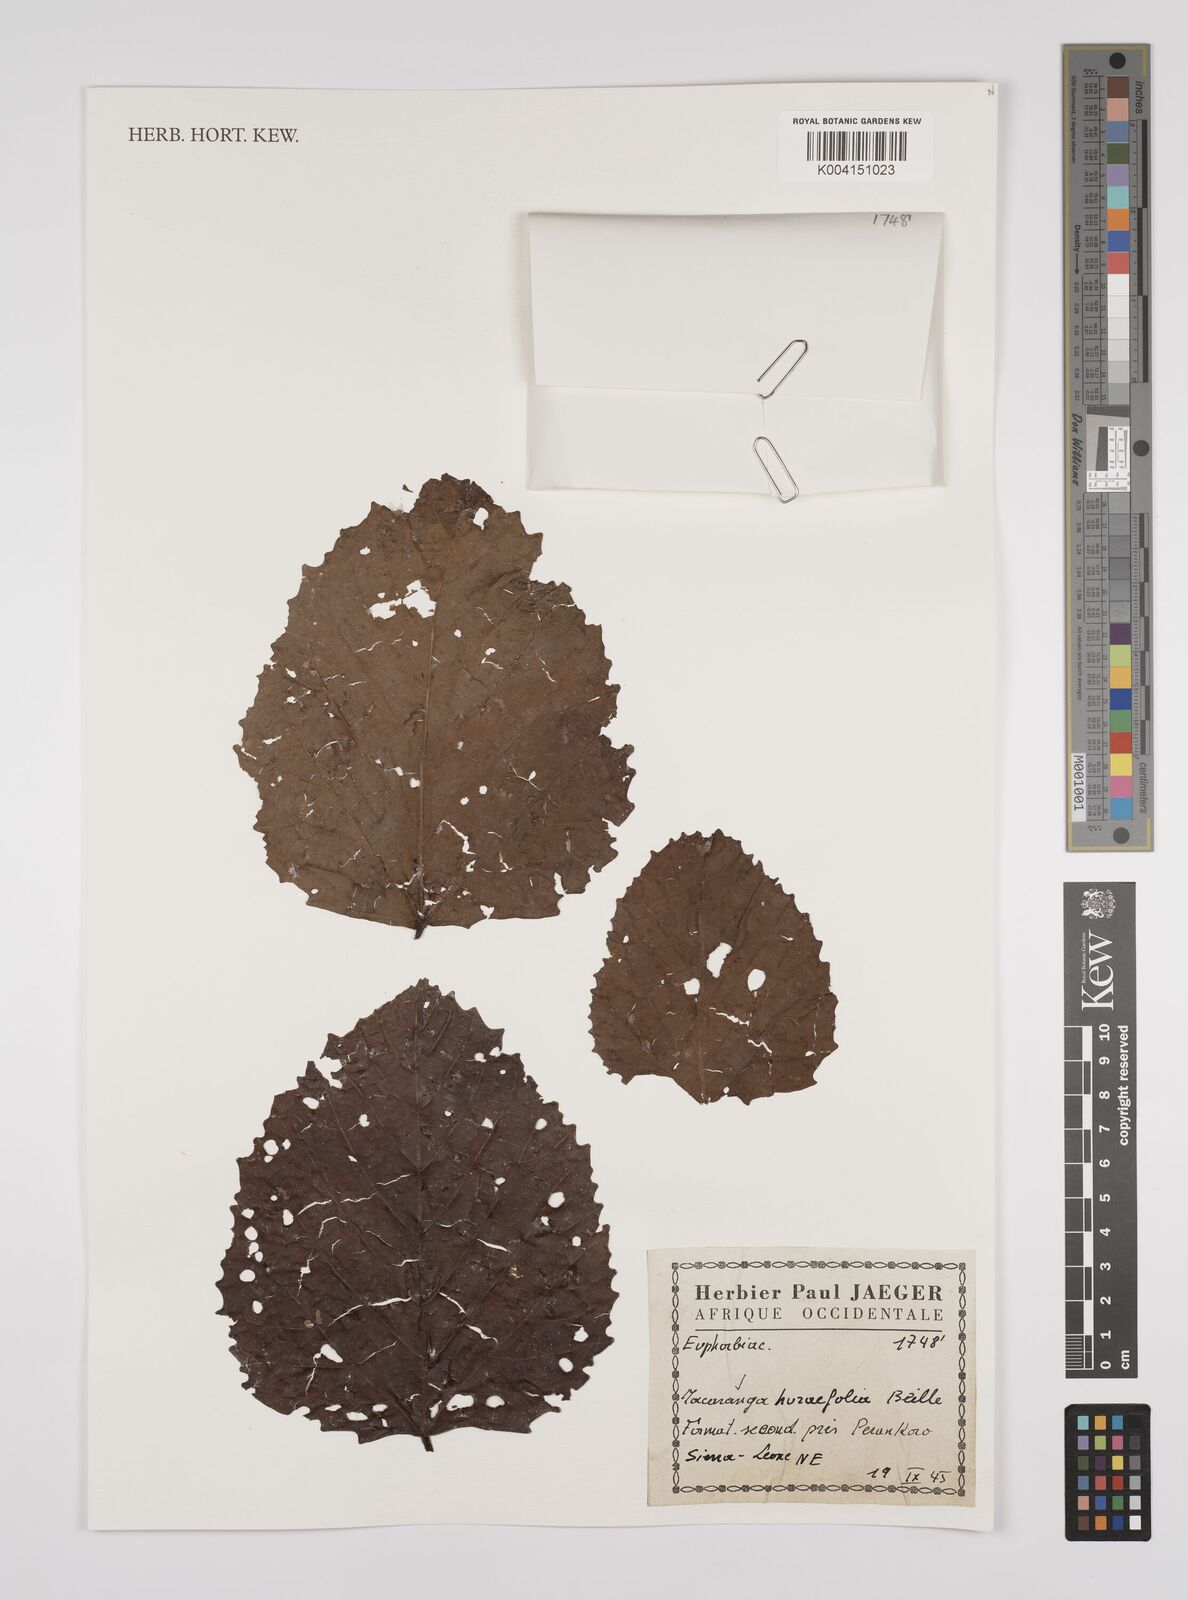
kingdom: Plantae
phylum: Tracheophyta
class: Magnoliopsida
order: Malpighiales
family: Euphorbiaceae
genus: Macaranga
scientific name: Macaranga hurifolia
